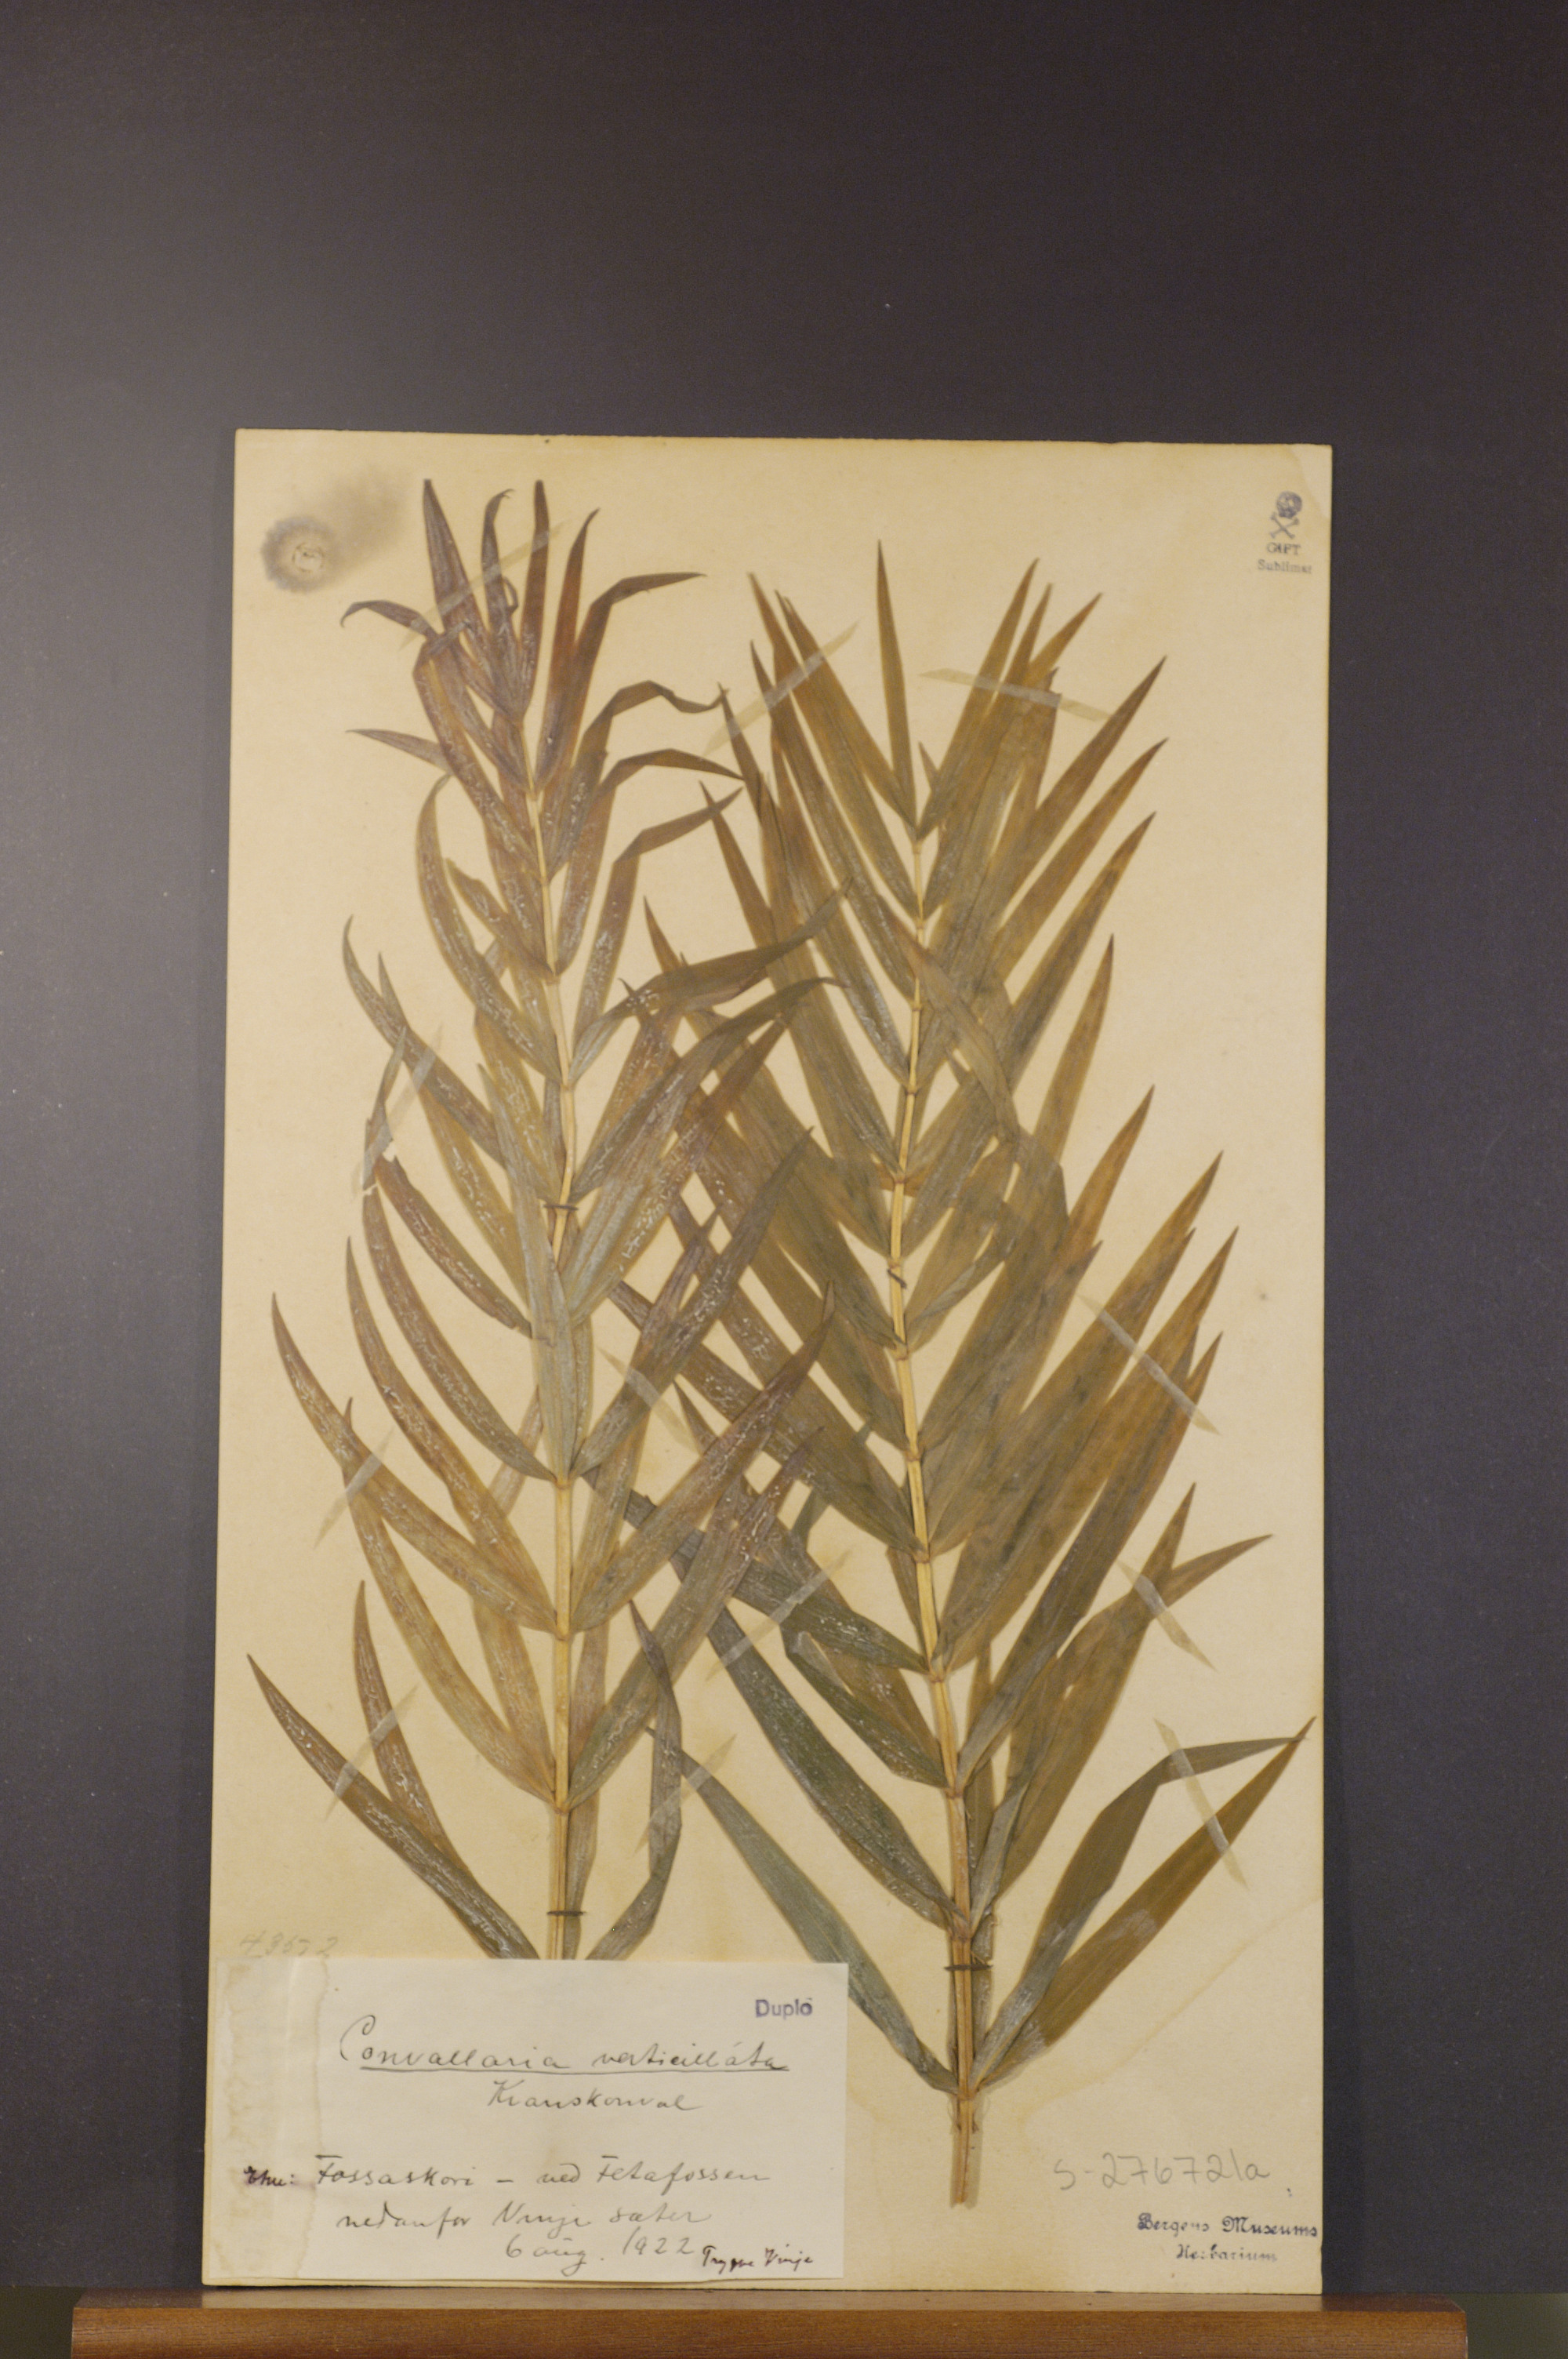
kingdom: Plantae
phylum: Tracheophyta
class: Liliopsida
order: Asparagales
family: Asparagaceae
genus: Polygonatum
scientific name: Polygonatum verticillatum
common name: Whorled solomon's-seal
